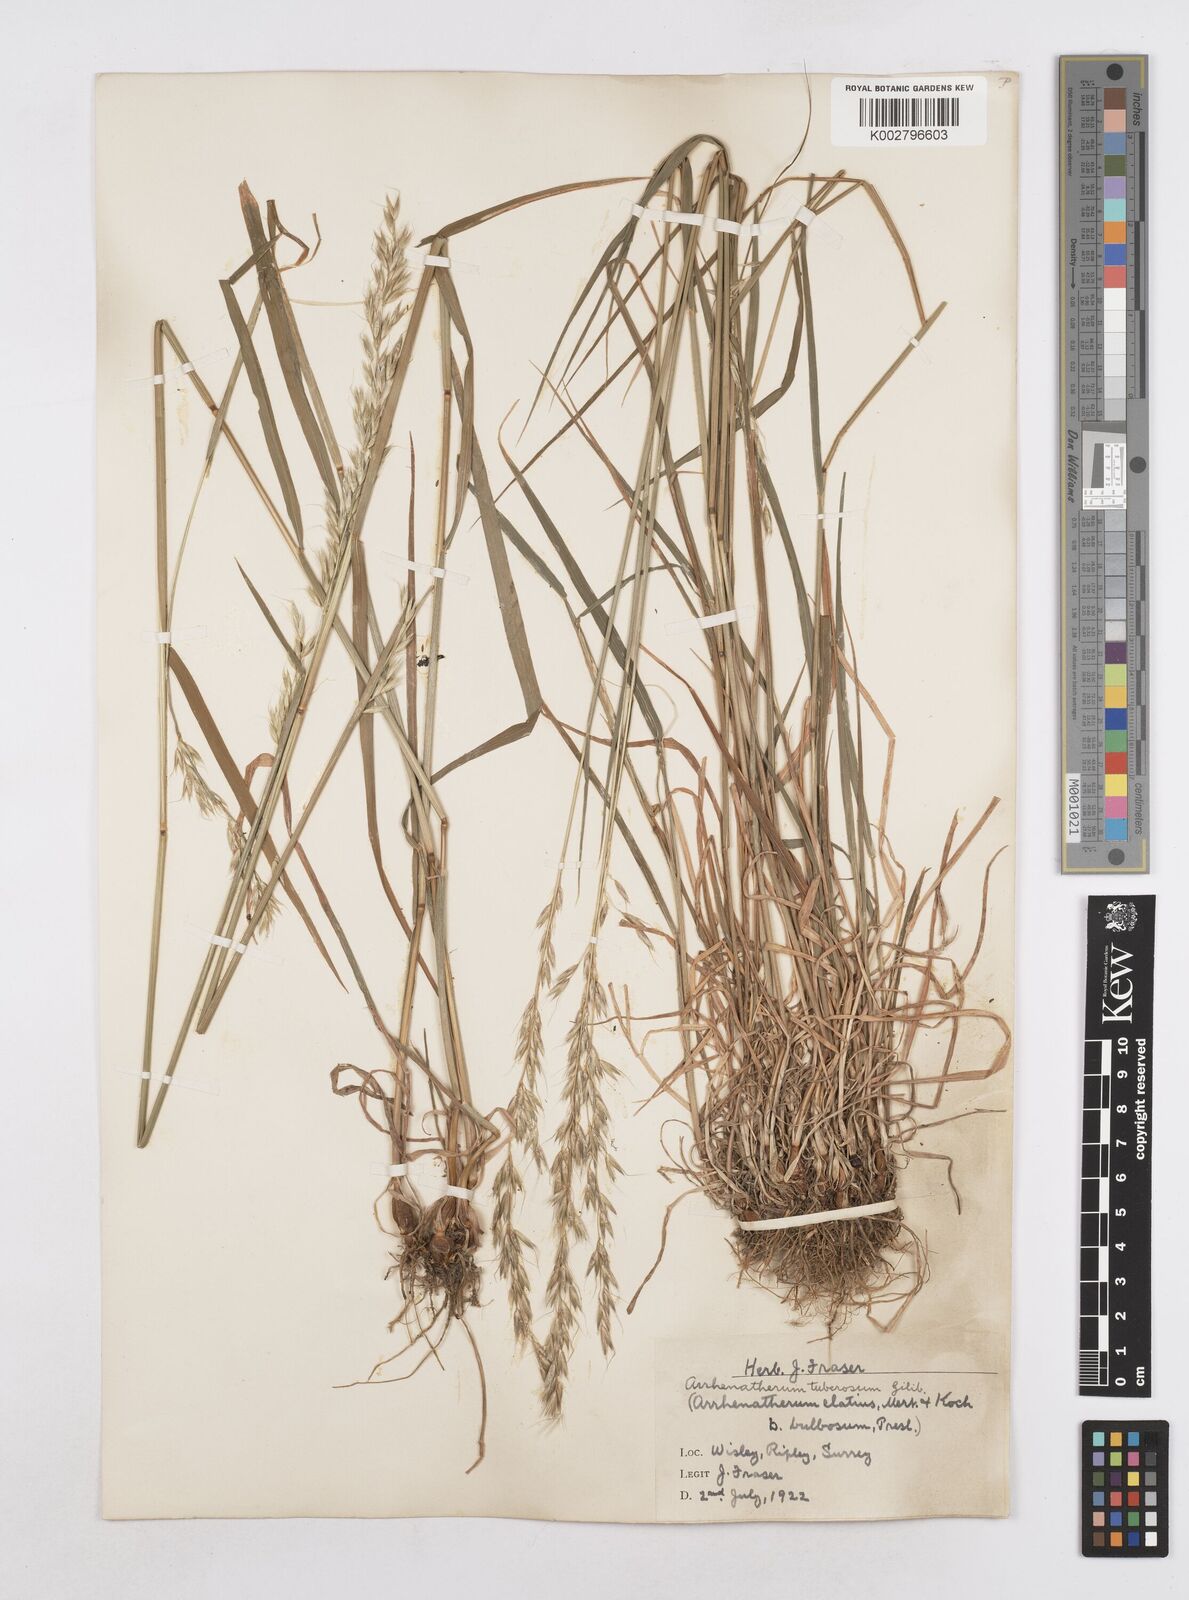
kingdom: Plantae
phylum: Tracheophyta
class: Liliopsida
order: Poales
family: Poaceae
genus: Arrhenatherum
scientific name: Arrhenatherum elatius
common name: Tall oatgrass
